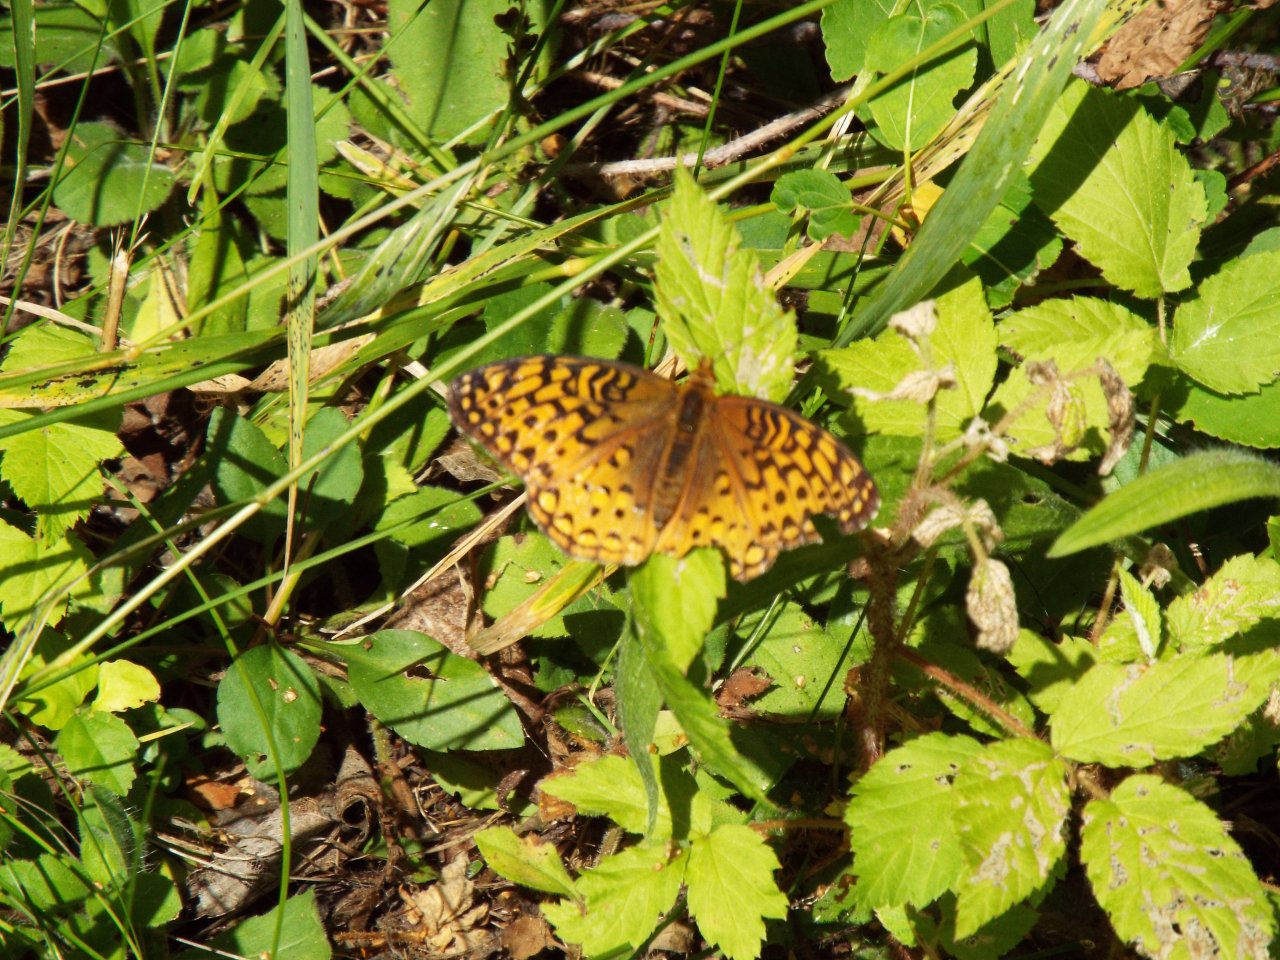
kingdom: Animalia
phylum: Arthropoda
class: Insecta
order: Lepidoptera
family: Nymphalidae
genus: Speyeria
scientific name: Speyeria aphrodite
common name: Aphrodite Fritillary
